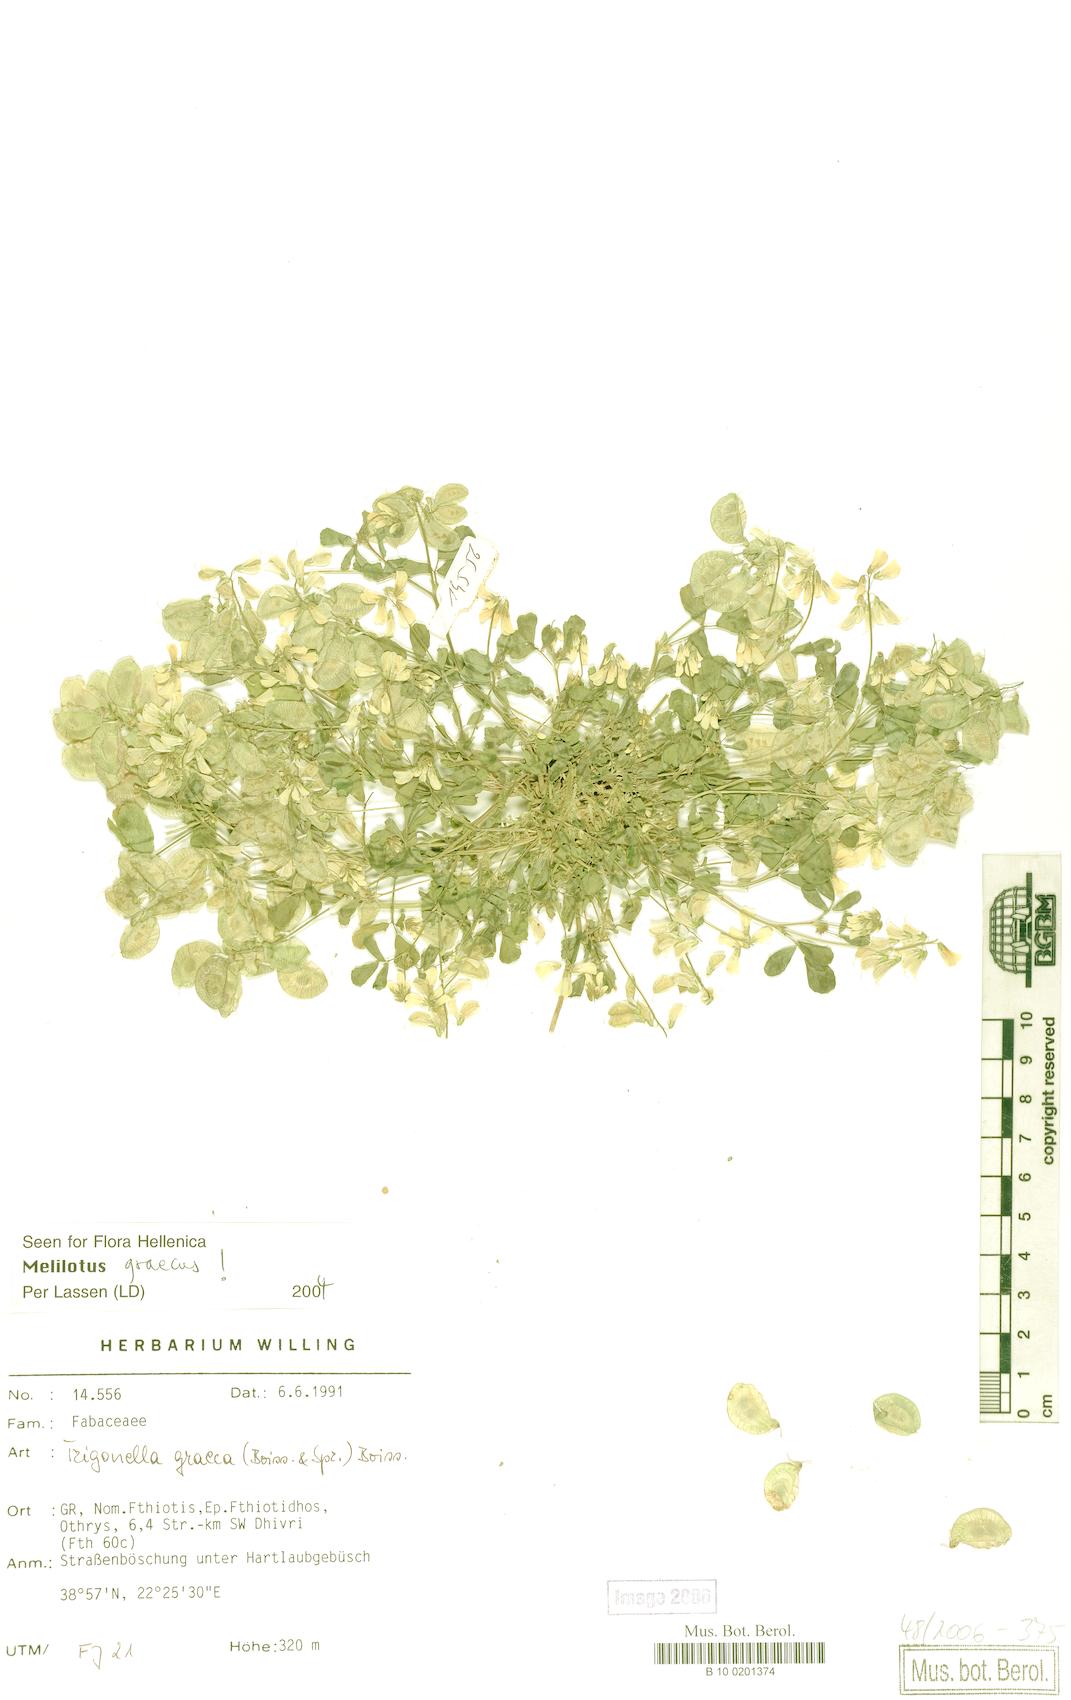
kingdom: Plantae
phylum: Tracheophyta
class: Magnoliopsida
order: Fabales
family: Fabaceae
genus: Trigonella
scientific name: Trigonella graeca
